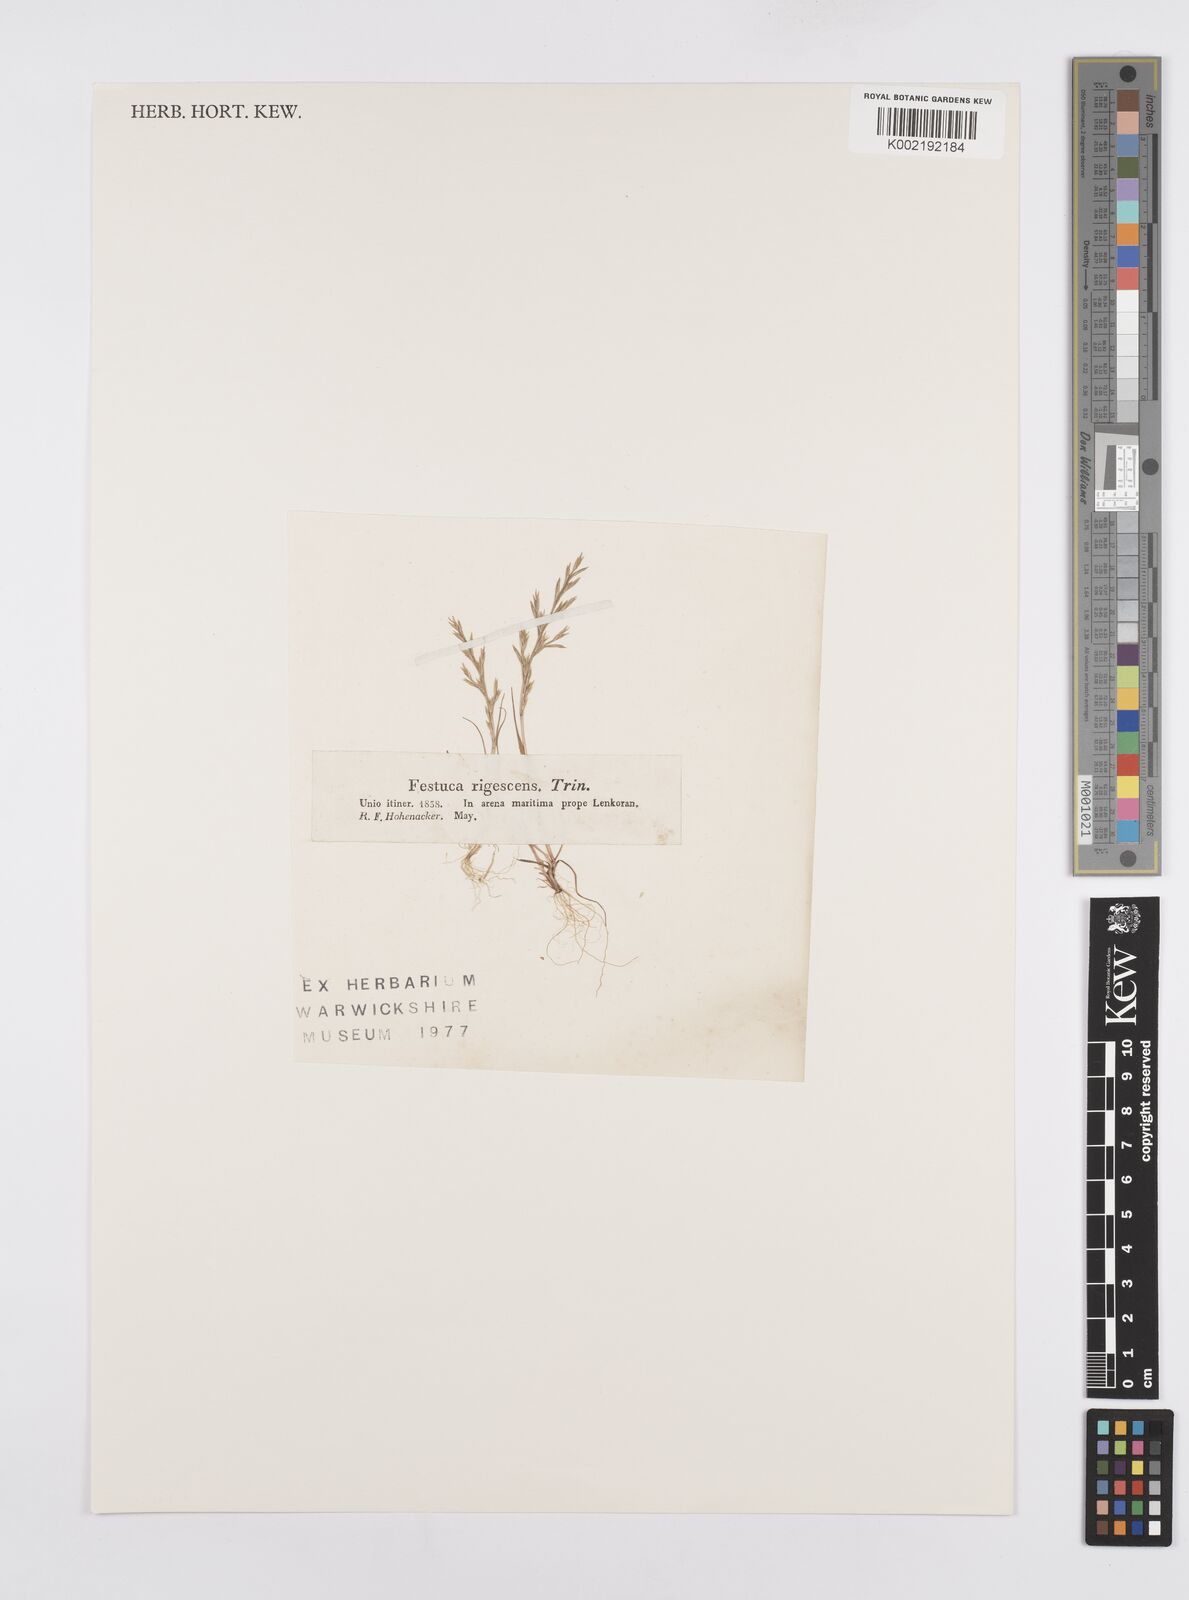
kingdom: Plantae
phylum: Tracheophyta
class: Liliopsida
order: Poales
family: Poaceae
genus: Cutandia
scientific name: Cutandia rigescens
